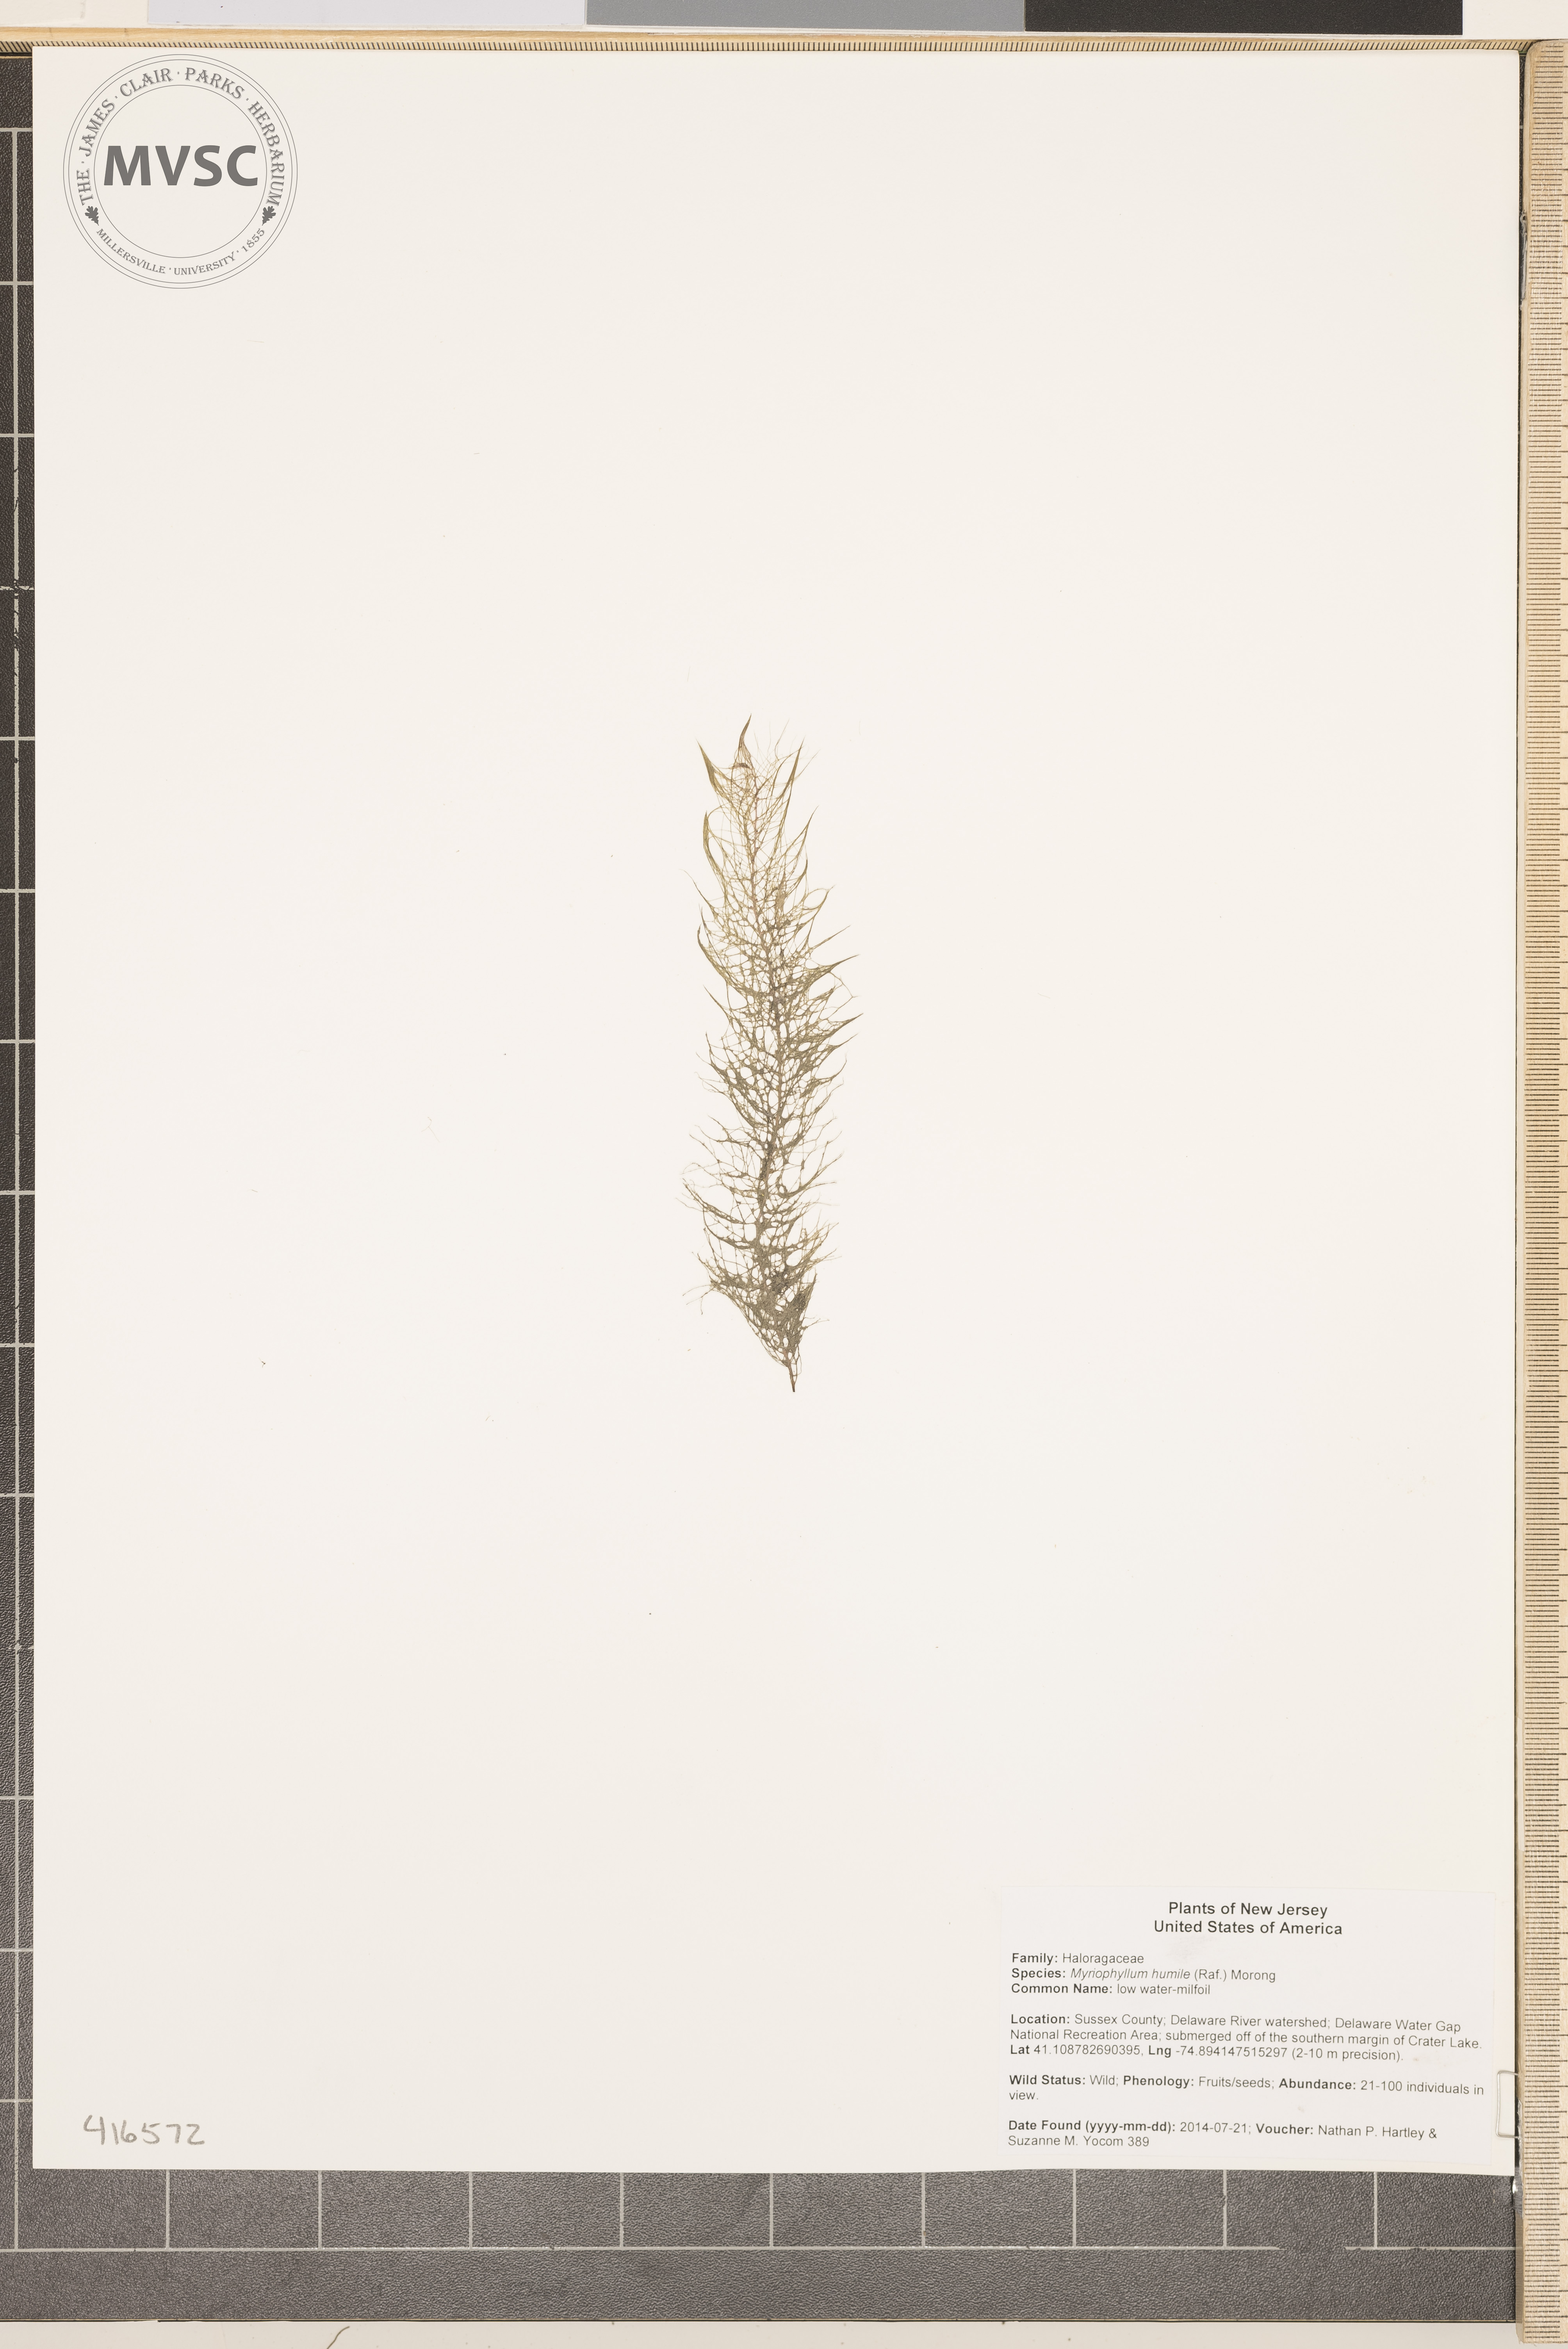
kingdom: Plantae
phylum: Tracheophyta
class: Magnoliopsida
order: Saxifragales
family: Haloragaceae
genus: Myriophyllum
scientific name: Myriophyllum humile
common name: low watermilfoil
